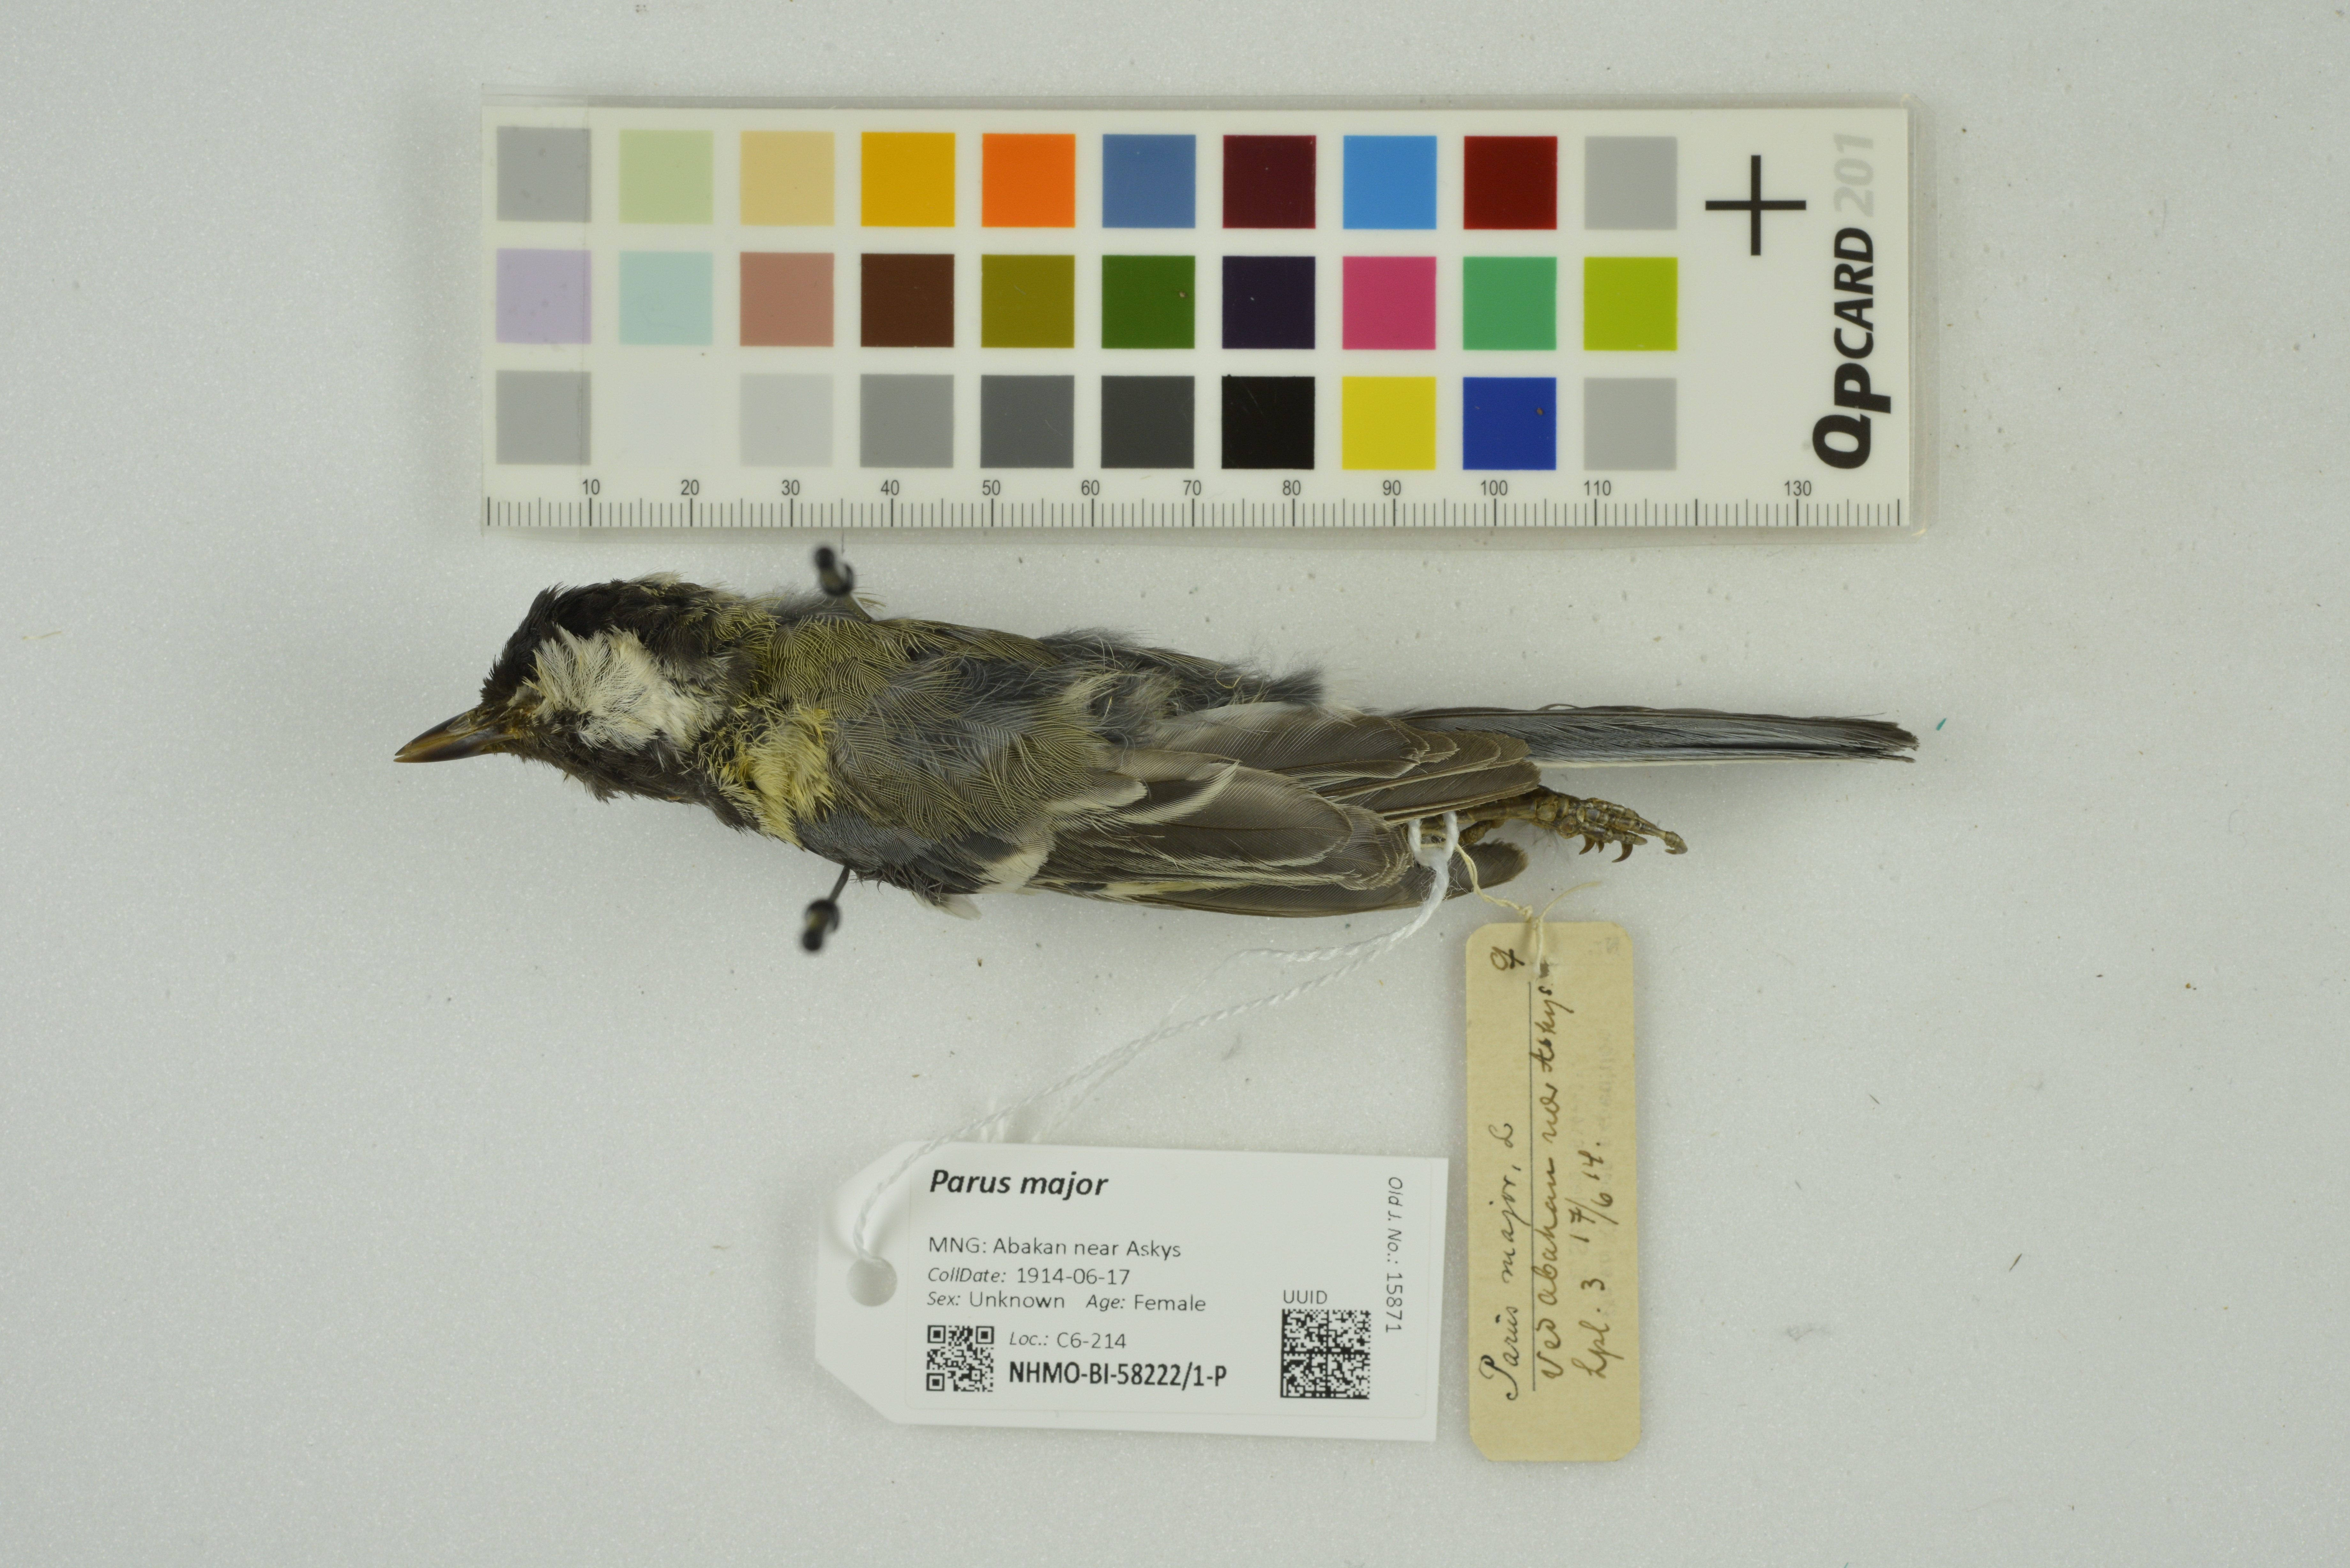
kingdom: Animalia
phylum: Chordata
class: Aves
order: Passeriformes
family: Paridae
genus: Parus
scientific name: Parus major
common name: Great tit
